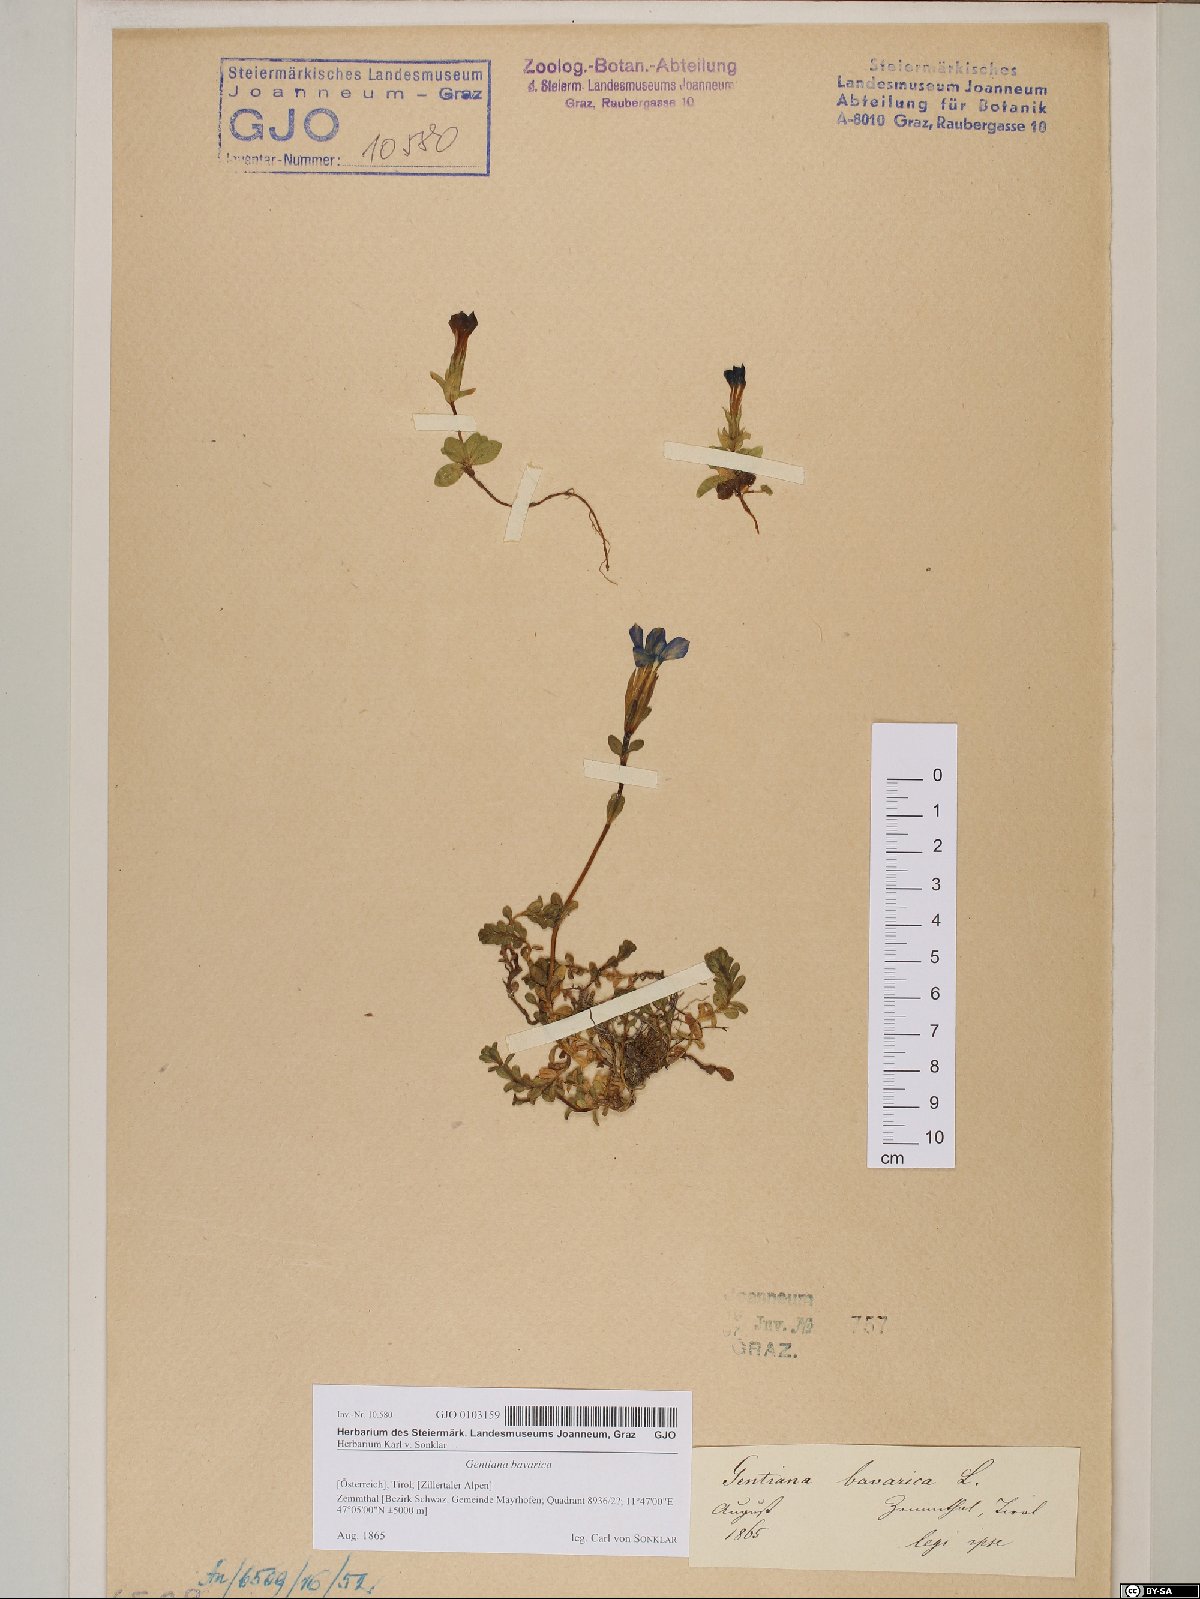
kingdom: Plantae
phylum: Tracheophyta
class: Magnoliopsida
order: Gentianales
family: Gentianaceae
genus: Gentiana
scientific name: Gentiana bavarica
